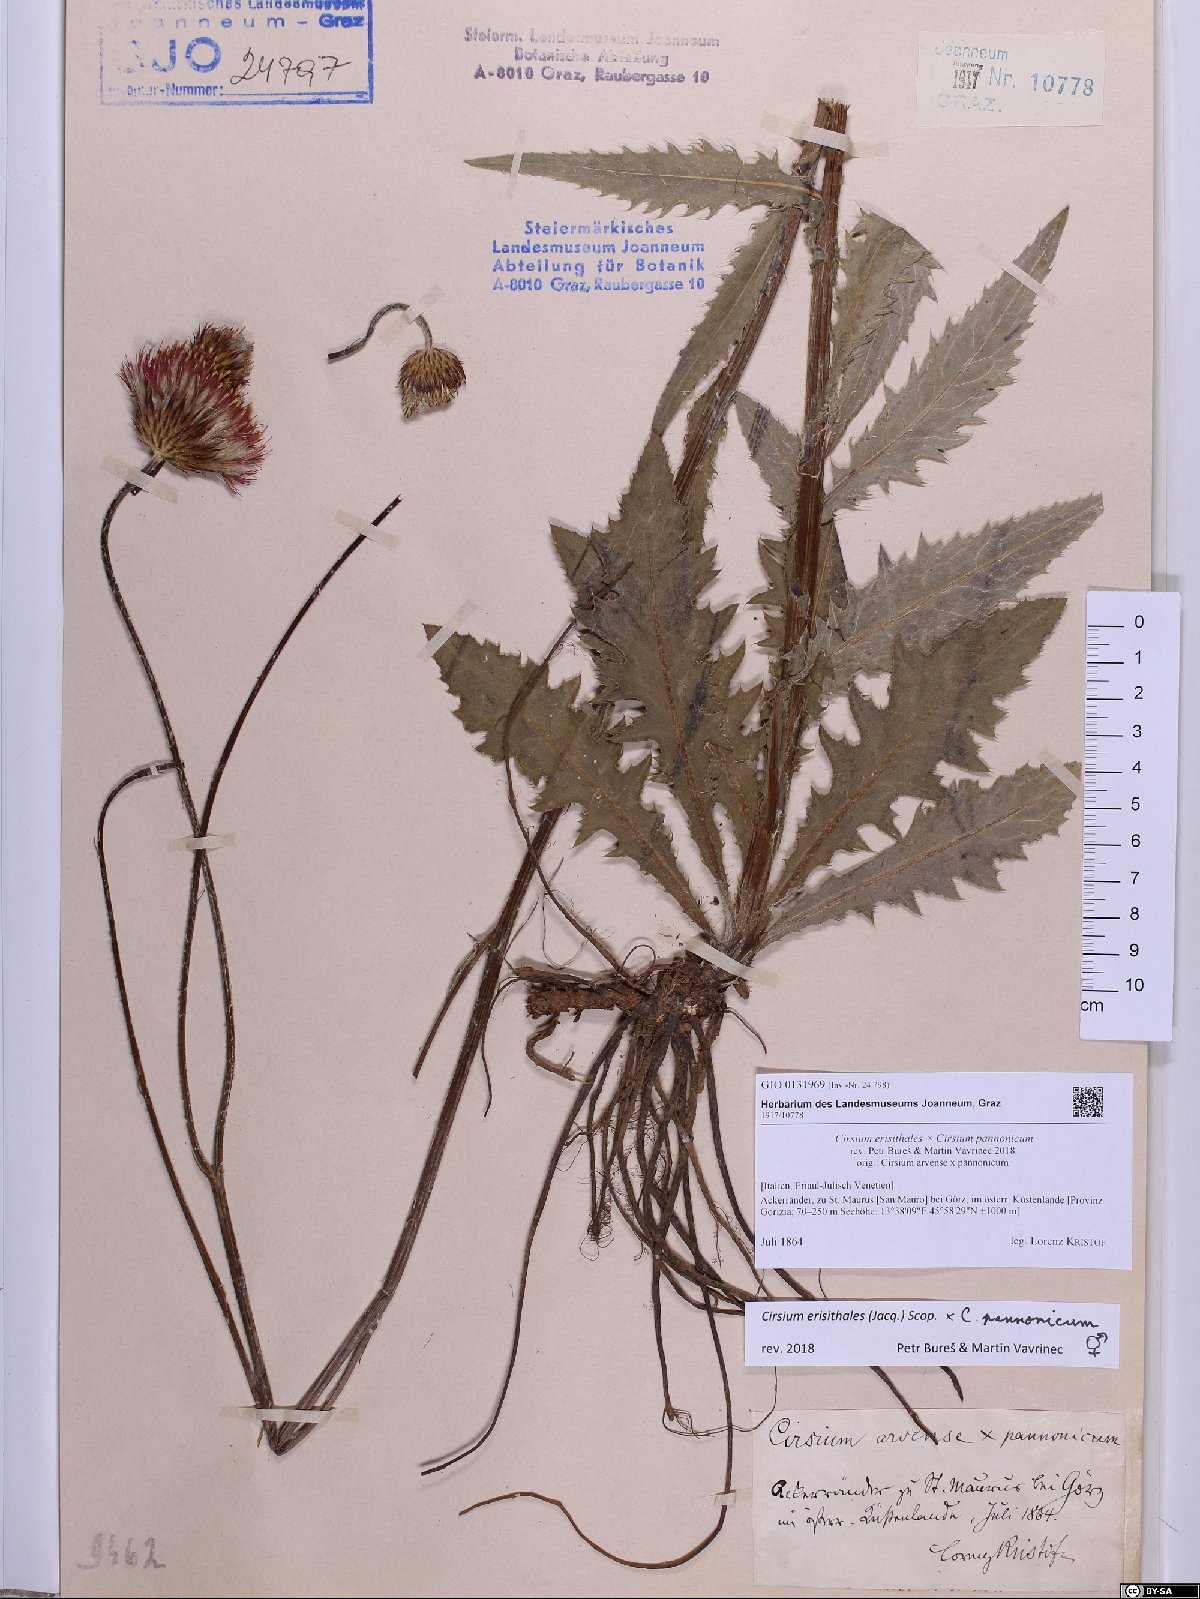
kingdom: Plantae
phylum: Tracheophyta
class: Magnoliopsida
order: Asterales
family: Asteraceae
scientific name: Asteraceae
